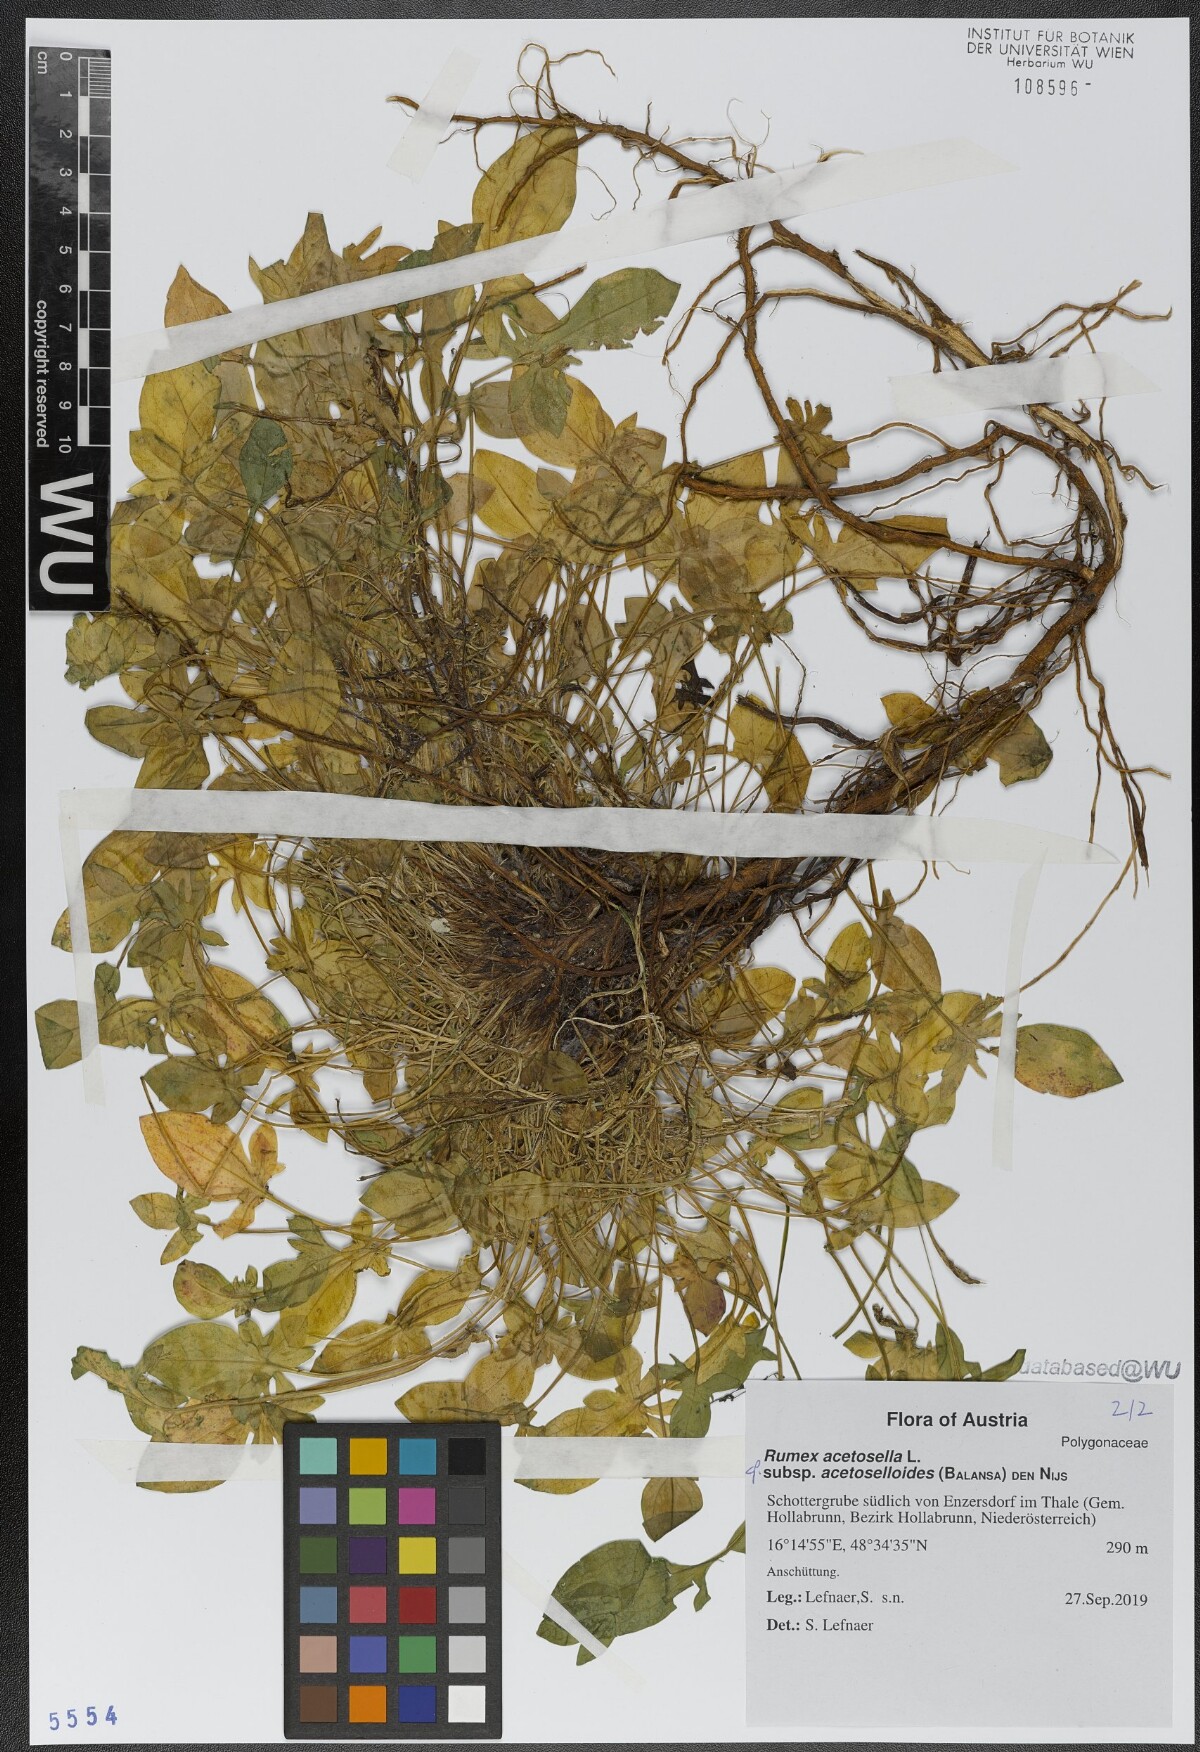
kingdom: Plantae
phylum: Tracheophyta
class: Magnoliopsida
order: Caryophyllales
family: Polygonaceae
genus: Rumex
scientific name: Rumex acetosella
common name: Common sheep sorrel
